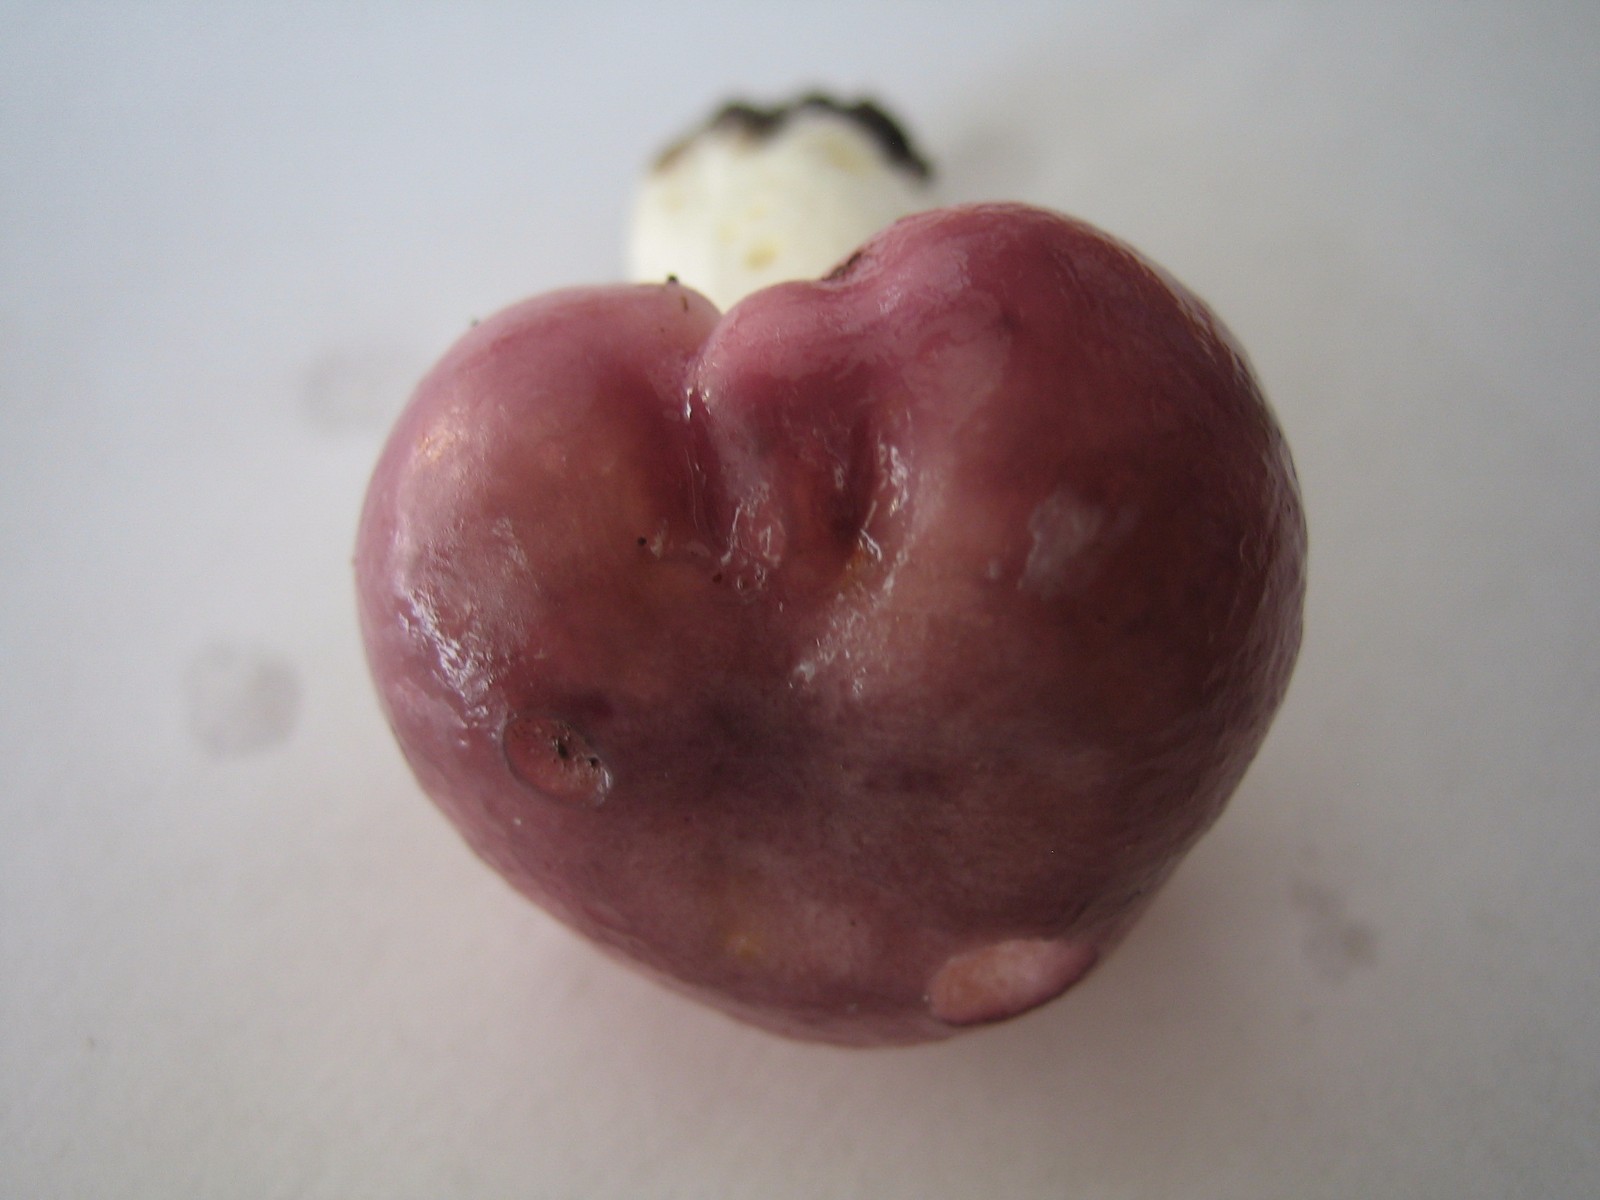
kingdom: Fungi
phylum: Basidiomycota
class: Agaricomycetes
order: Russulales
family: Russulaceae
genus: Russula
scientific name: Russula cyanoxantha
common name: broget skørhat
